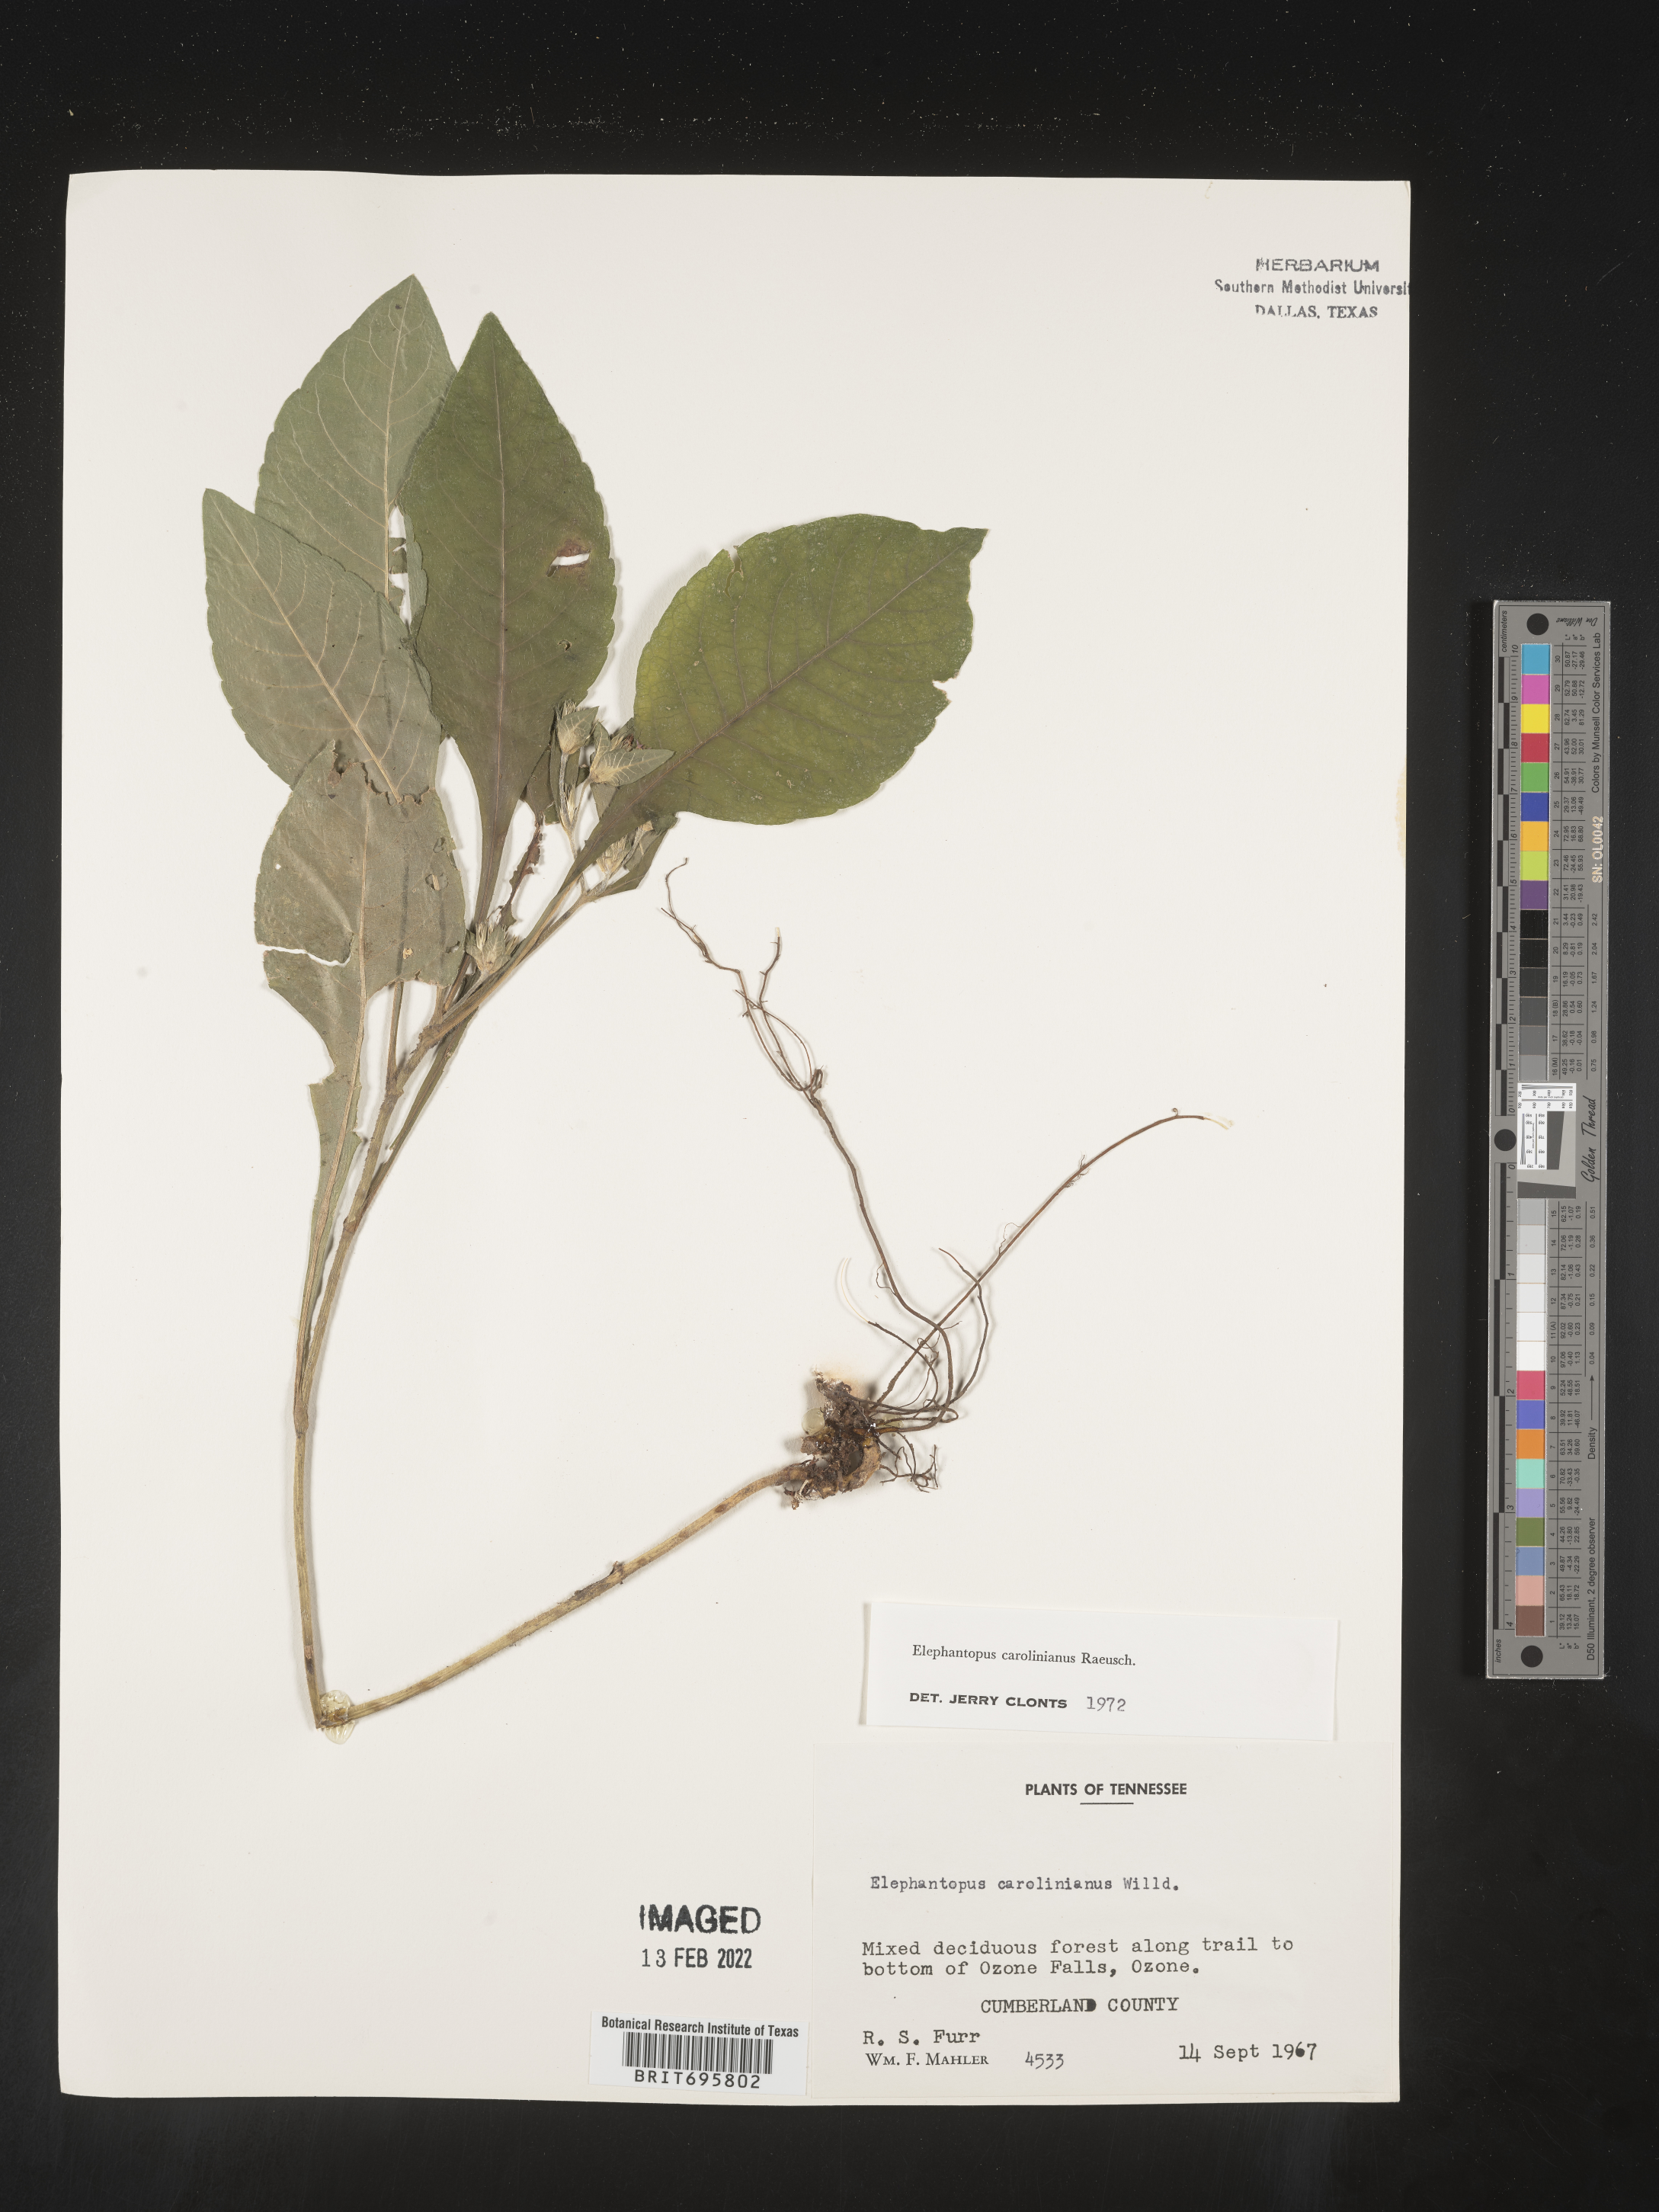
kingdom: Plantae
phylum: Tracheophyta
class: Magnoliopsida
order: Asterales
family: Asteraceae
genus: Elephantopus
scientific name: Elephantopus carolinianus
